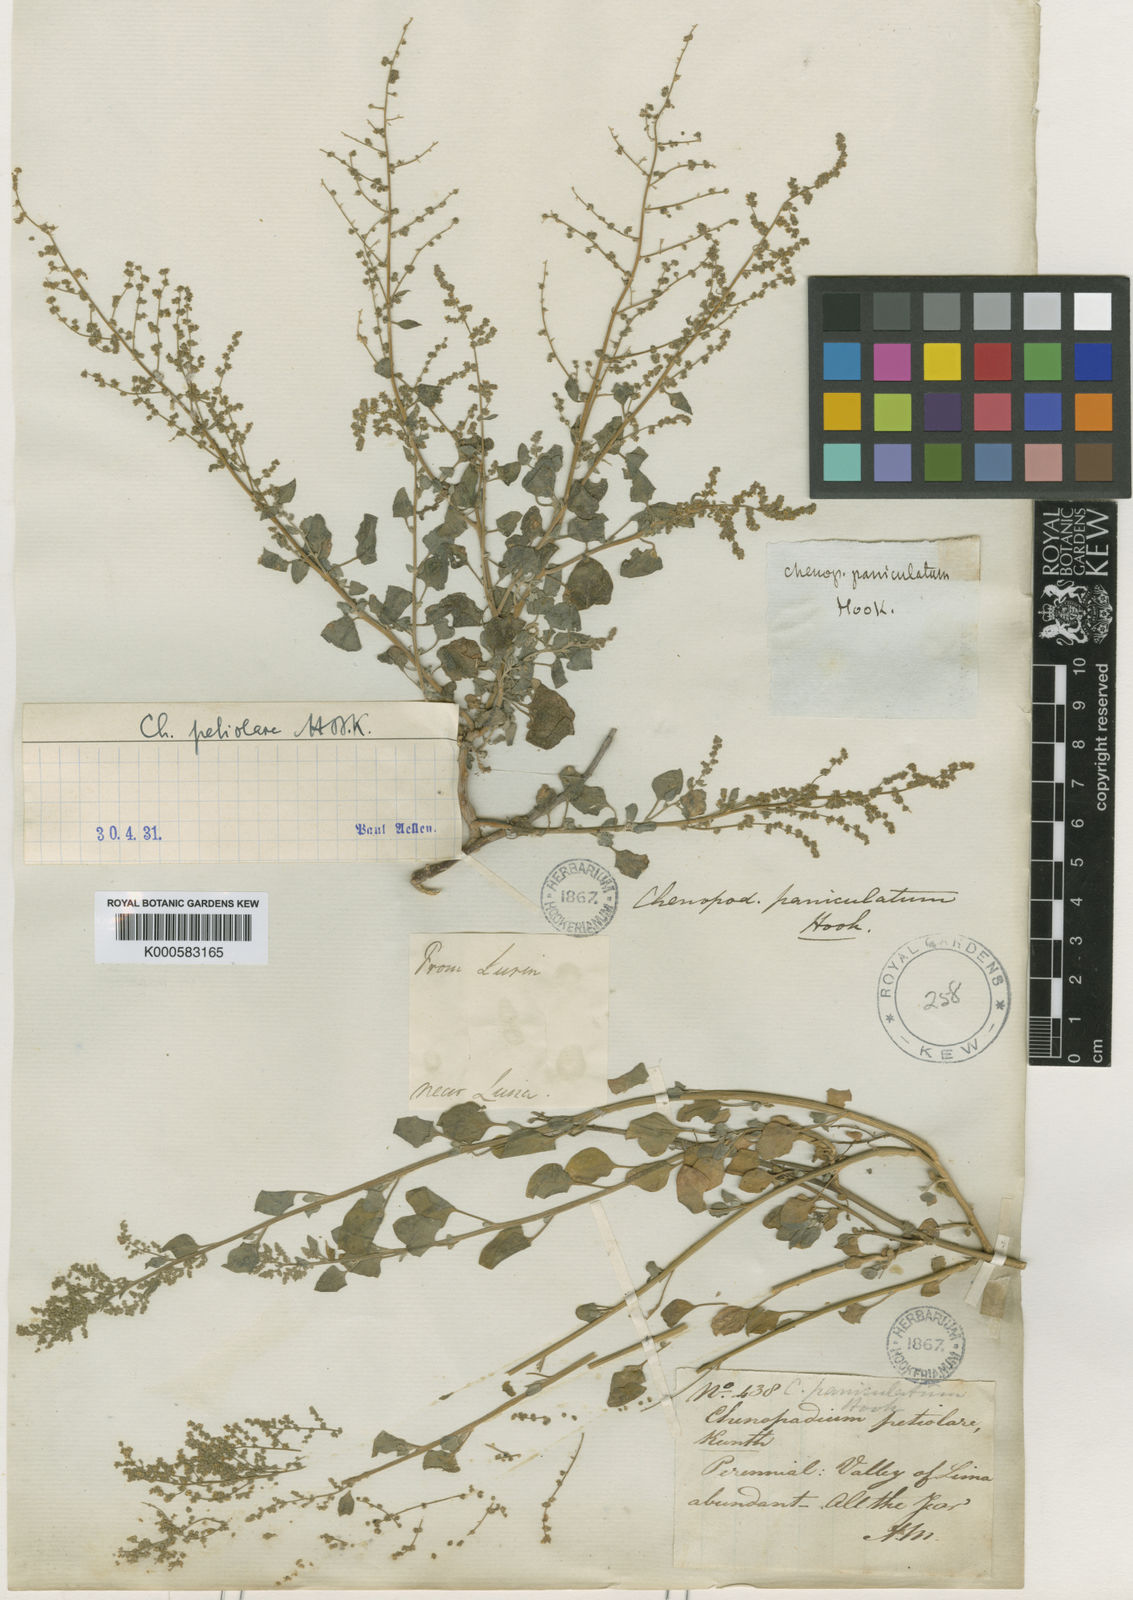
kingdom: Plantae
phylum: Tracheophyta
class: Magnoliopsida
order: Caryophyllales
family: Amaranthaceae
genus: Chenopodium
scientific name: Chenopodium petiolare
